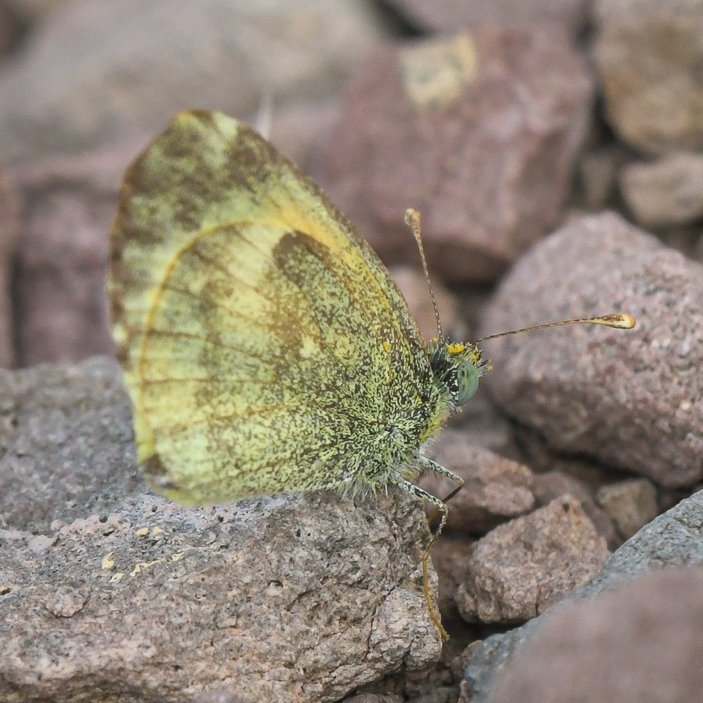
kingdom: Animalia
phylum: Arthropoda
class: Insecta
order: Lepidoptera
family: Pieridae
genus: Nathalis
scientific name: Nathalis iole
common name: Dainty Sulphur
